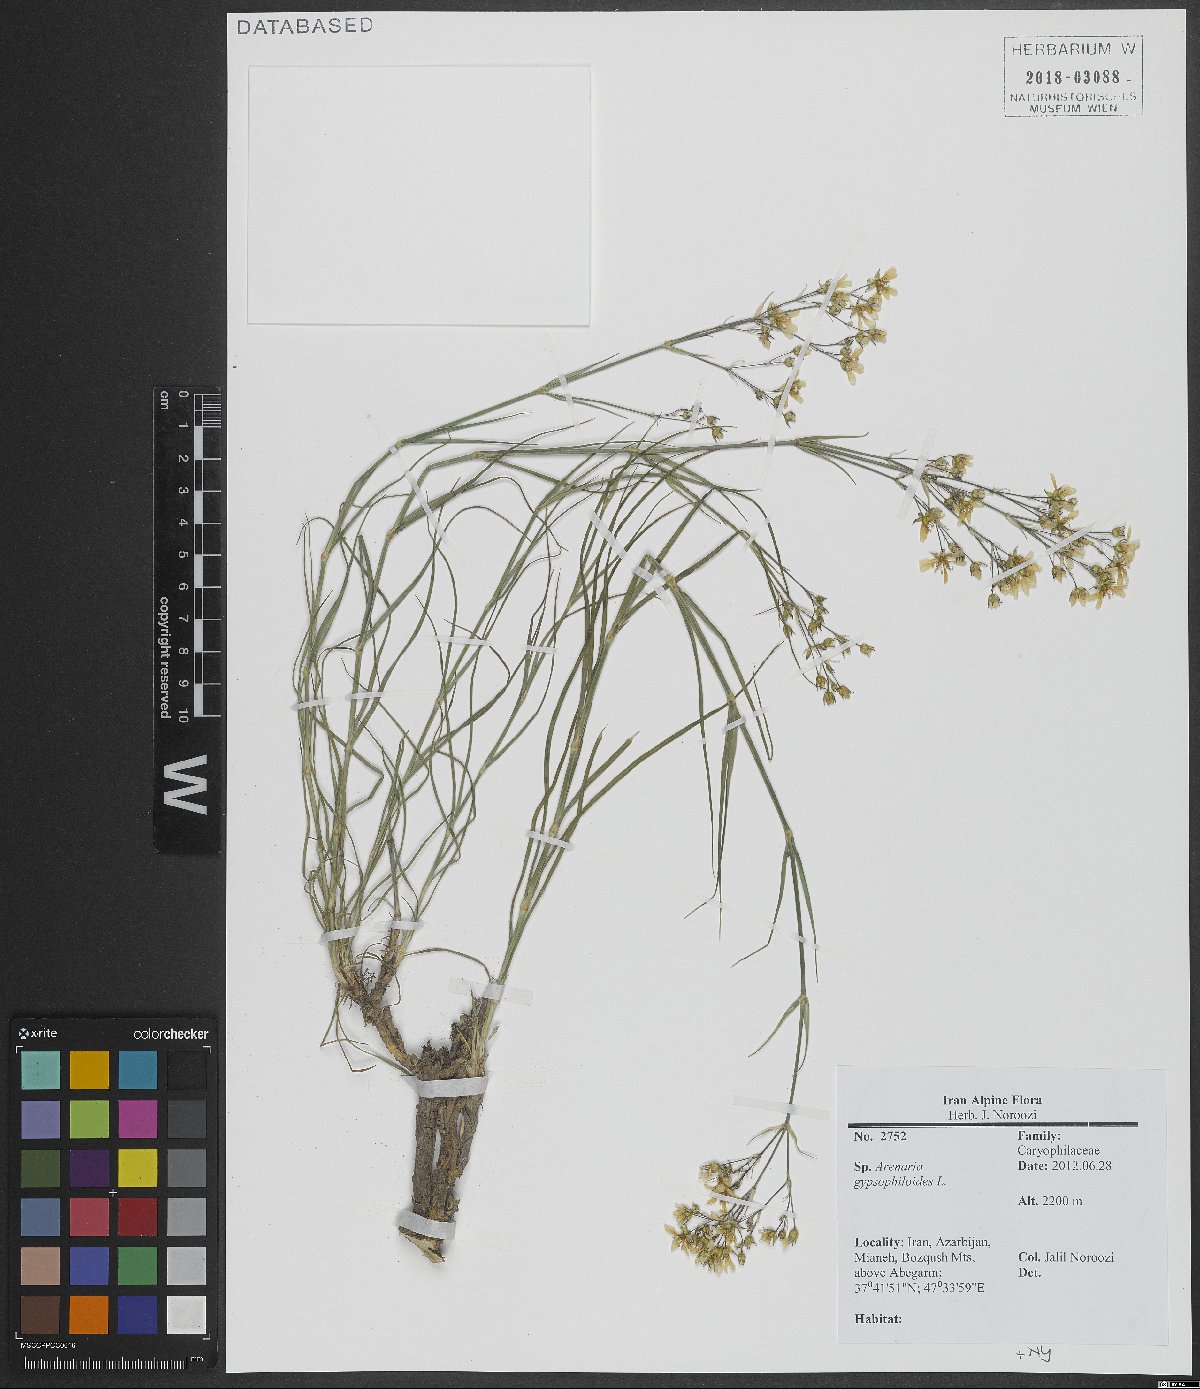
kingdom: Plantae
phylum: Tracheophyta
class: Magnoliopsida
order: Caryophyllales
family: Caryophyllaceae
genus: Eremogone
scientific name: Eremogone gypsophiloides
